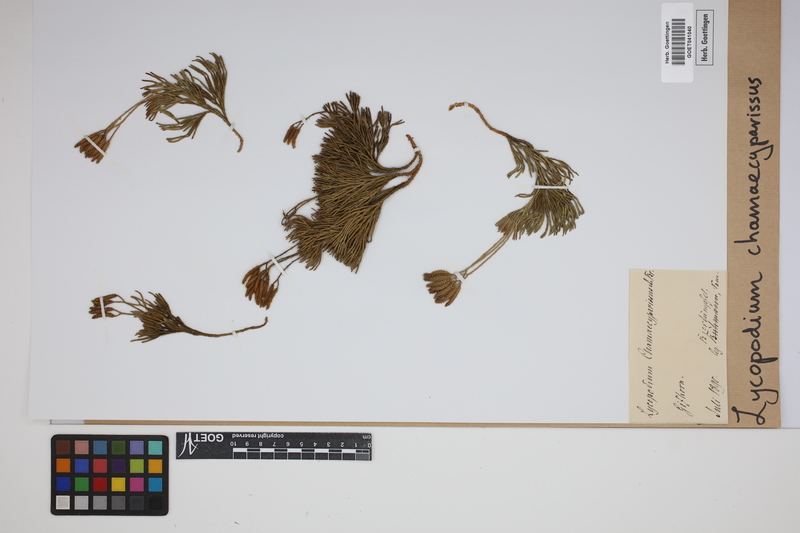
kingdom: Plantae
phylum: Tracheophyta
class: Lycopodiopsida
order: Lycopodiales
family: Lycopodiaceae
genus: Diphasiastrum
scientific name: Diphasiastrum tristachyum
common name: Blue ground-cedar
